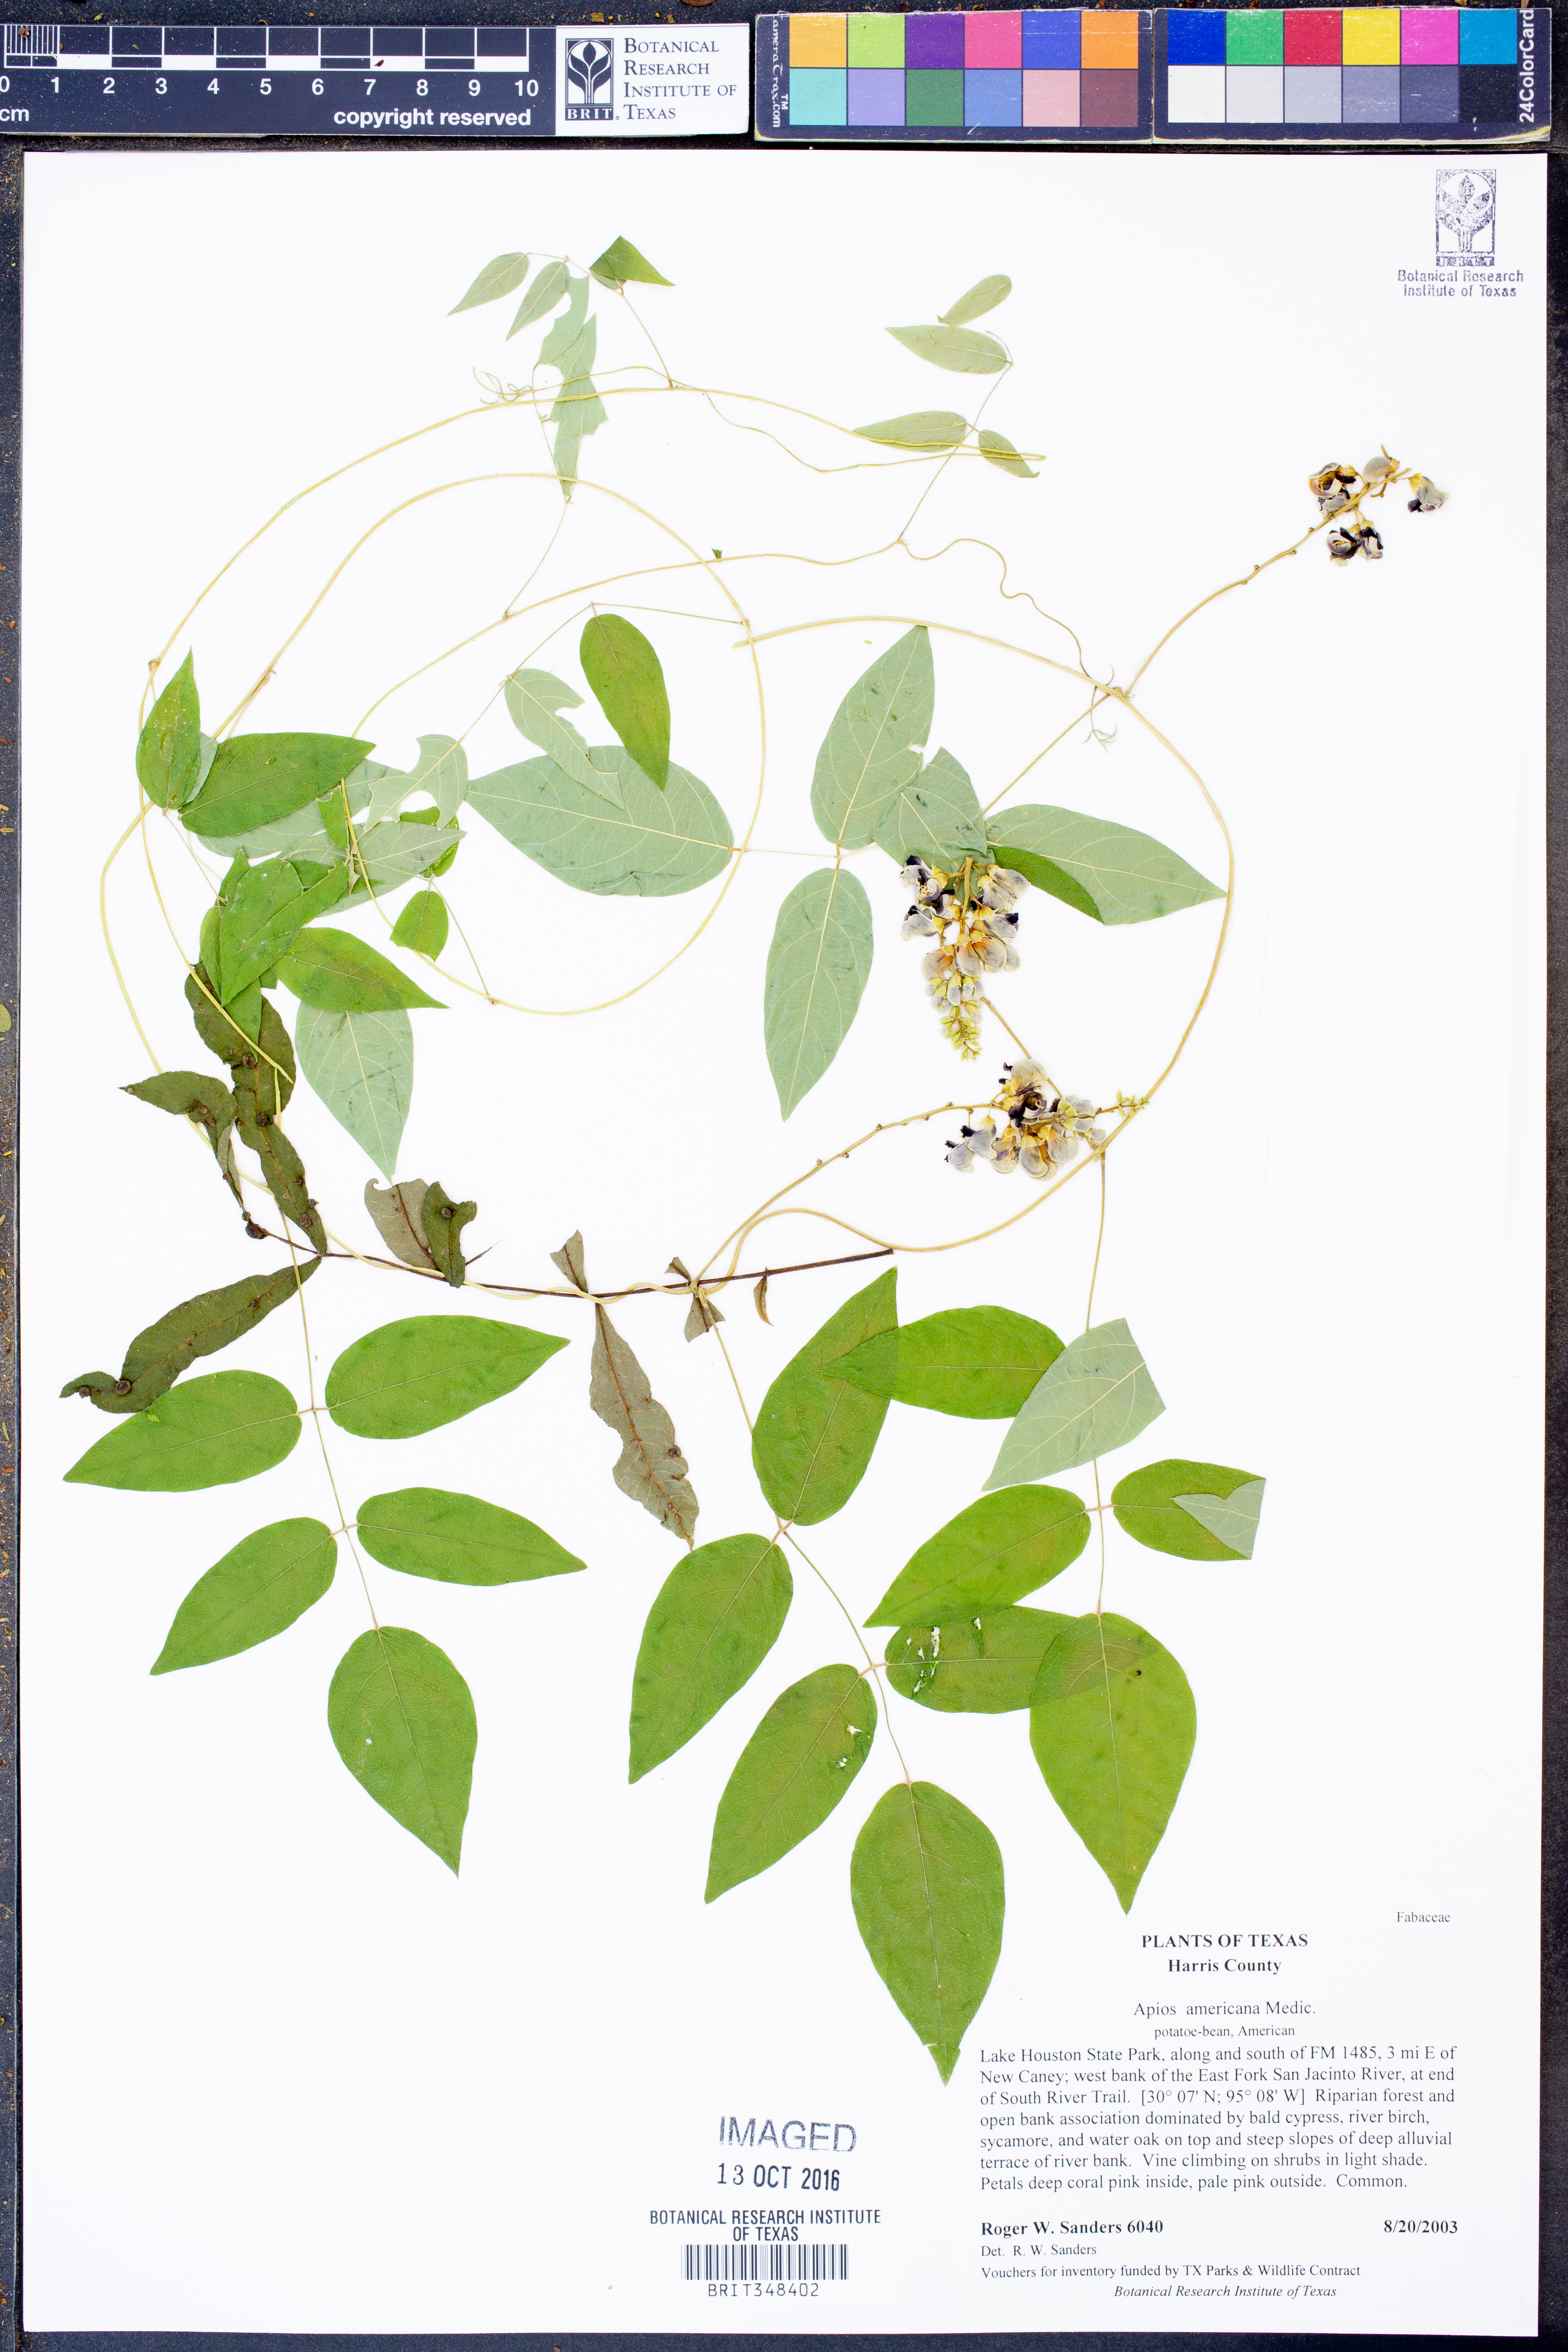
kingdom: Plantae
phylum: Tracheophyta
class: Magnoliopsida
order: Fabales
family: Fabaceae
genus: Apios
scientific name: Apios americana
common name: American potato-bean
